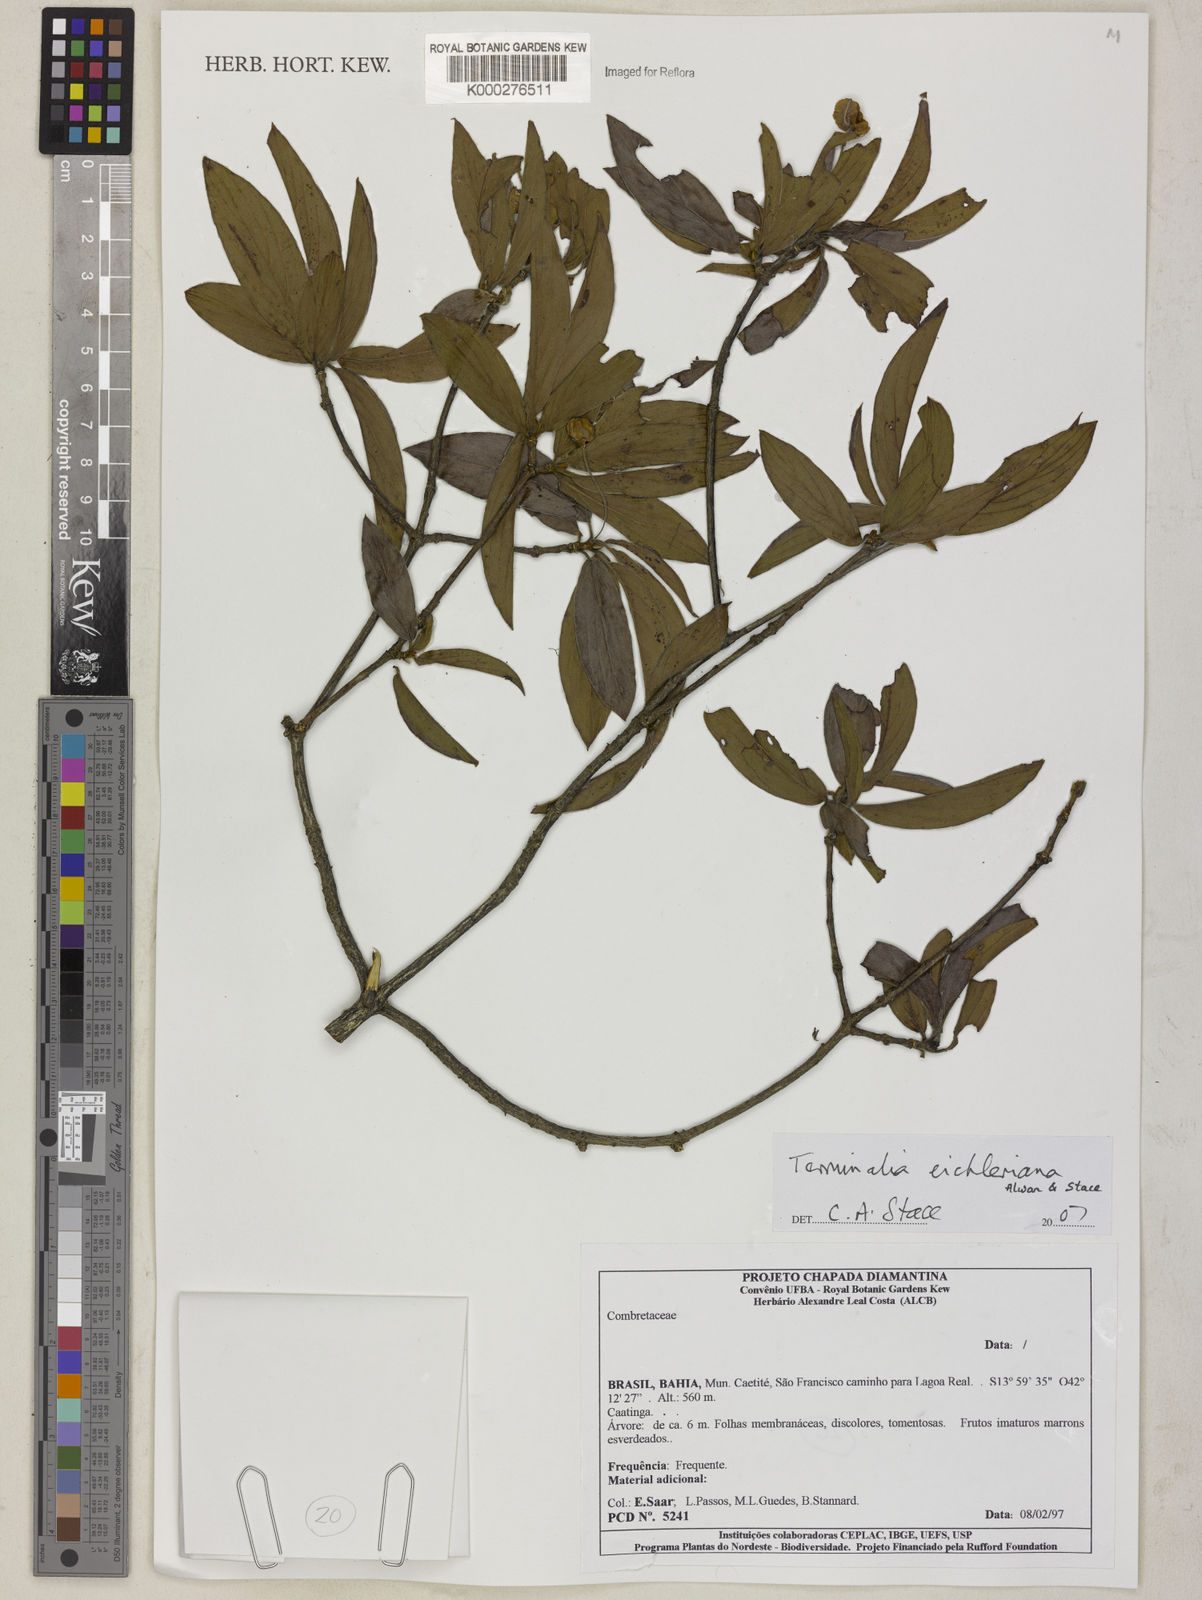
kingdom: Plantae
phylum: Tracheophyta
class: Magnoliopsida
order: Myrtales
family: Combretaceae
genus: Terminalia
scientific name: Terminalia eichleriana
